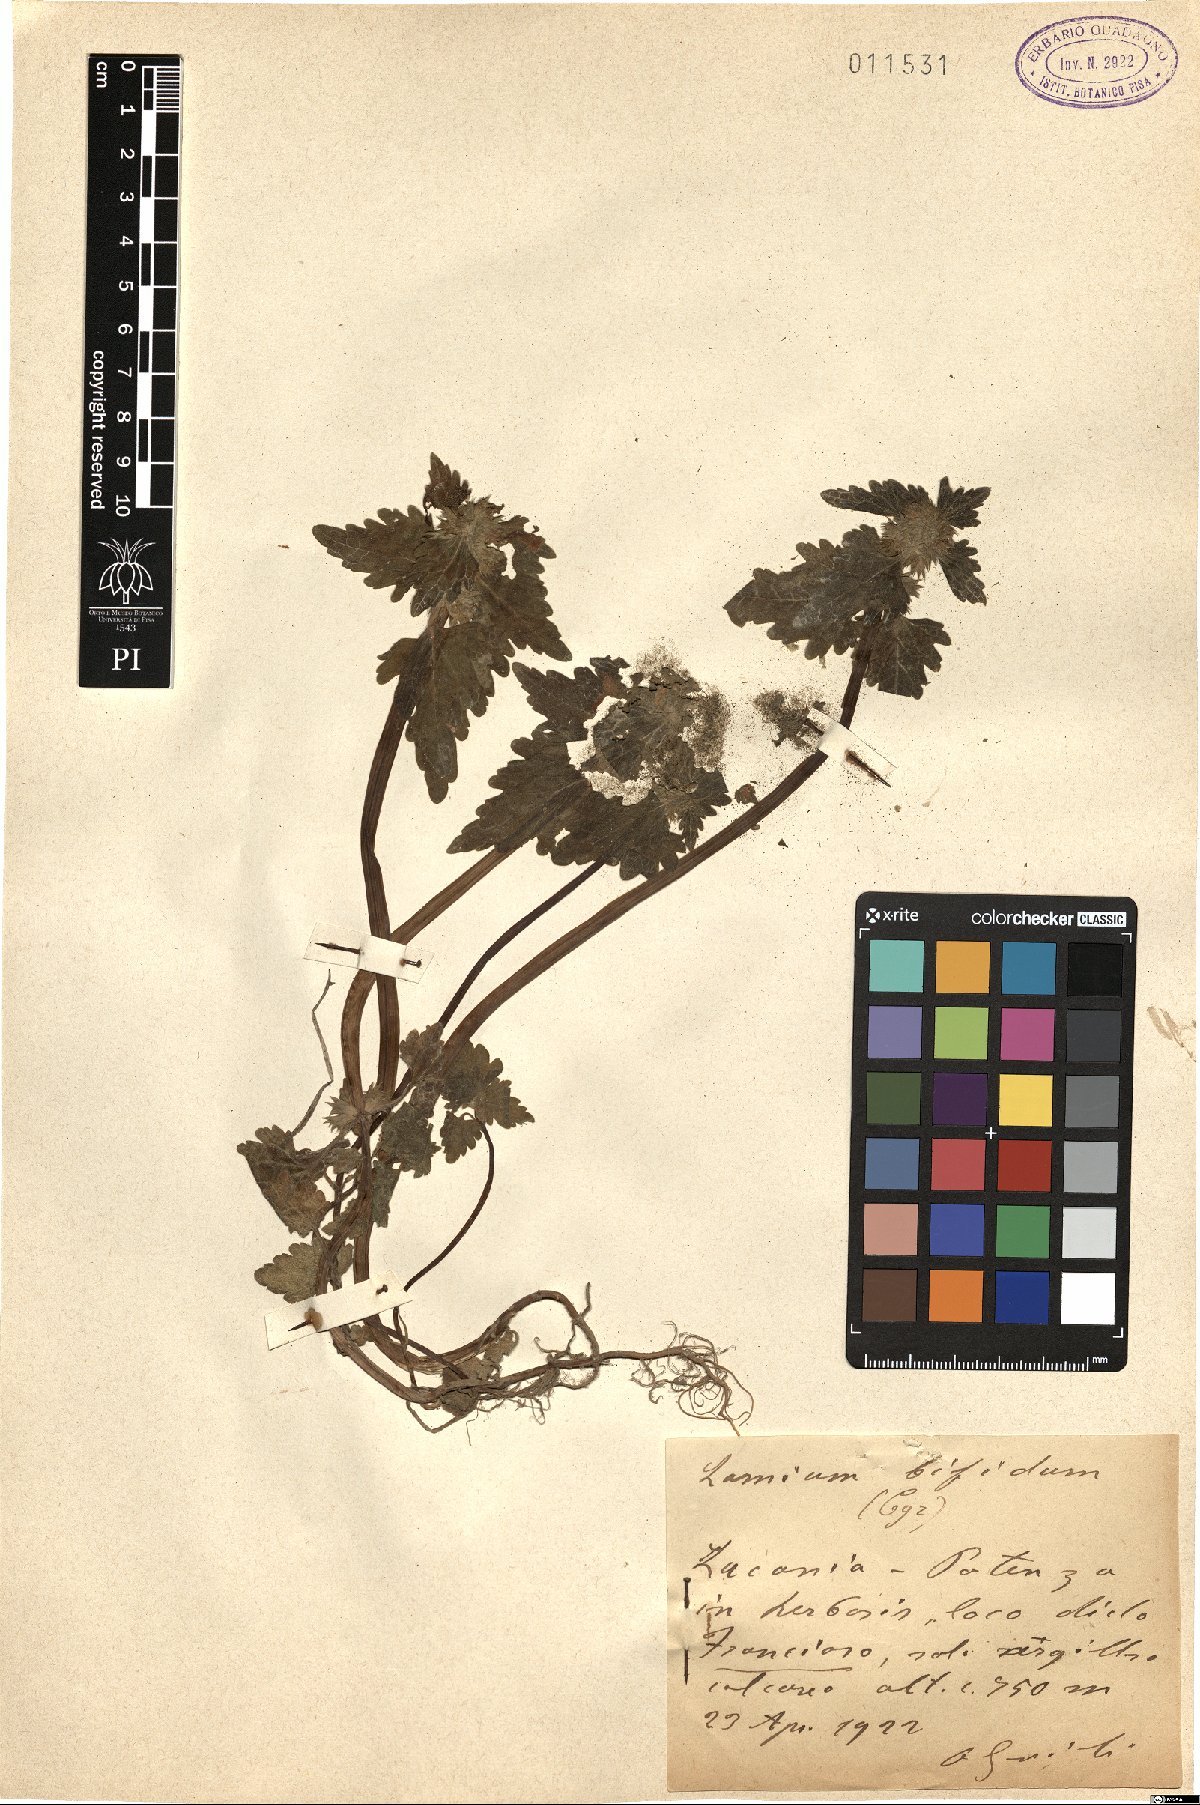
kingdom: Plantae
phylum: Tracheophyta
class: Magnoliopsida
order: Lamiales
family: Lamiaceae
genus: Lamium
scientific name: Lamium bifidum
